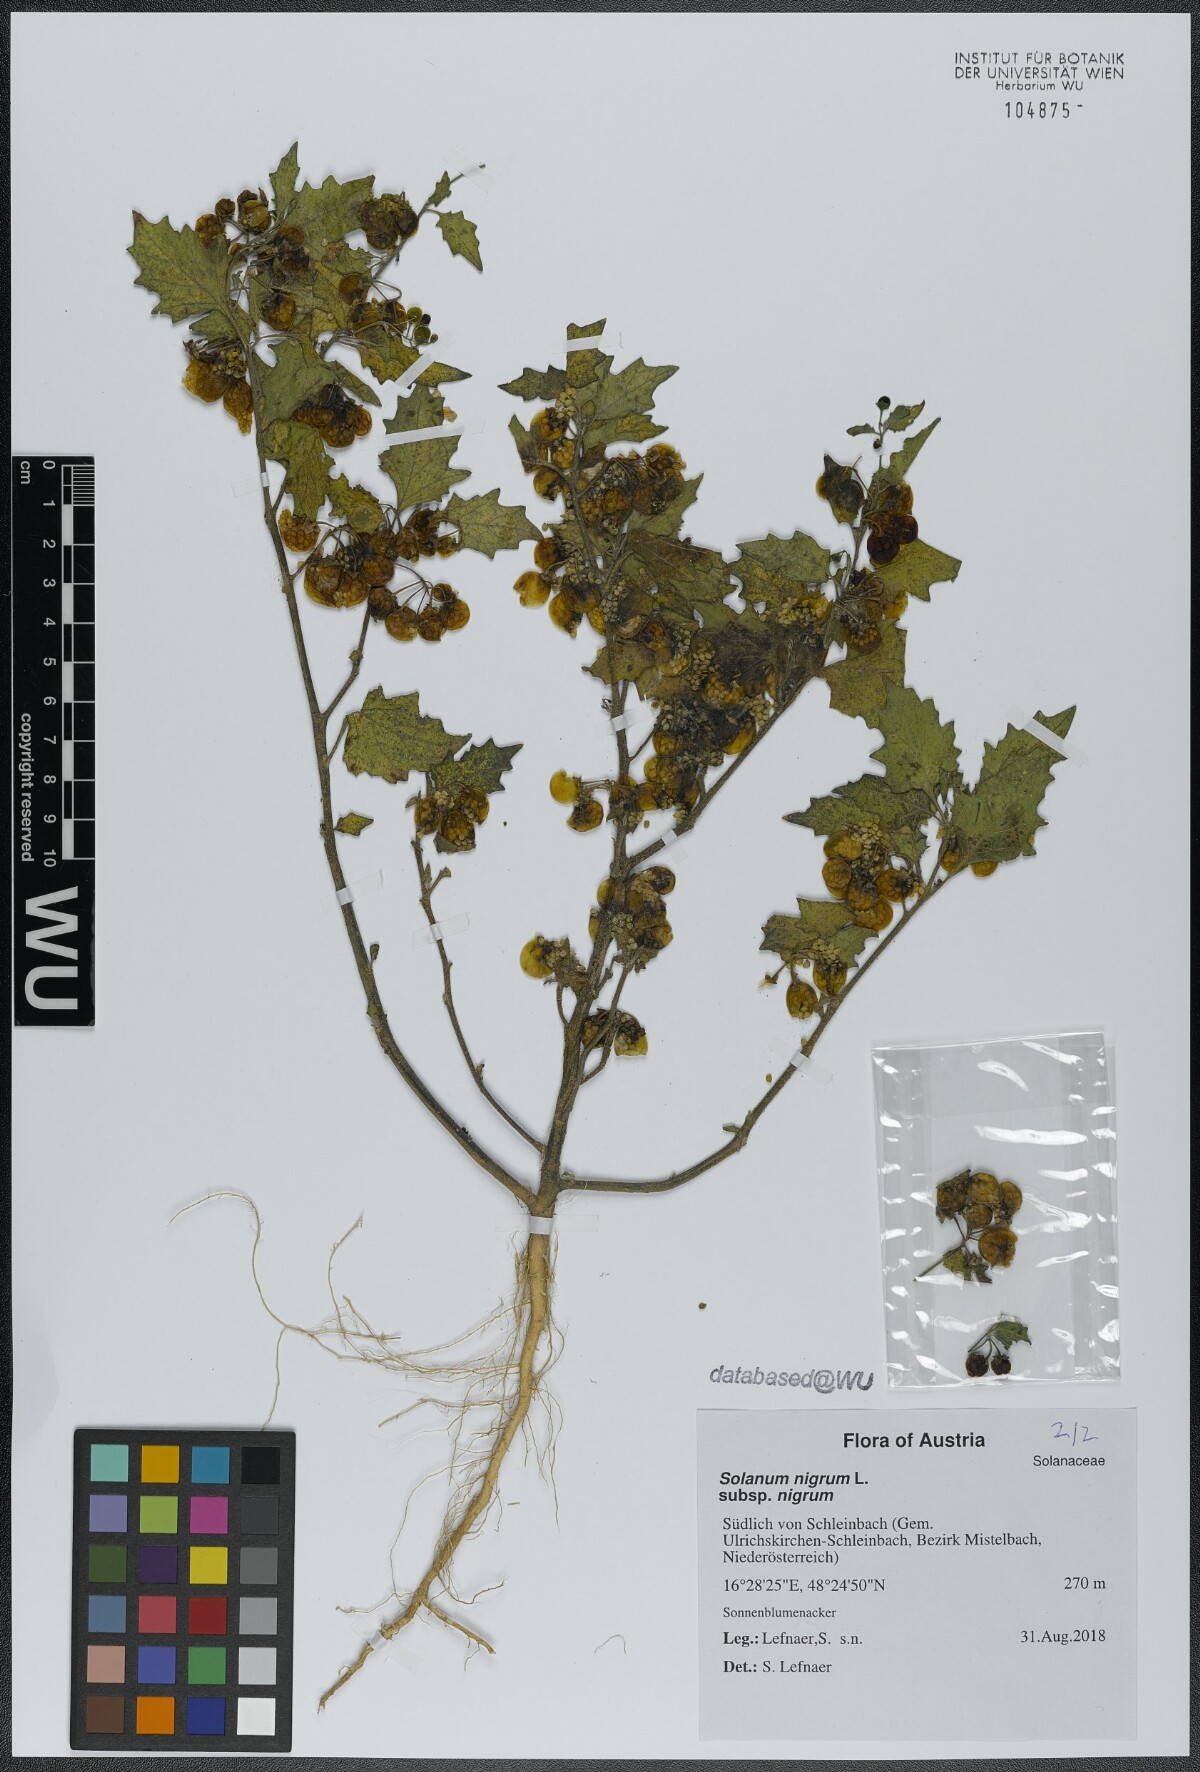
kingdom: Plantae
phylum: Tracheophyta
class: Magnoliopsida
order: Solanales
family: Solanaceae
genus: Solanum
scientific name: Solanum nigrum
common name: Black nightshade
